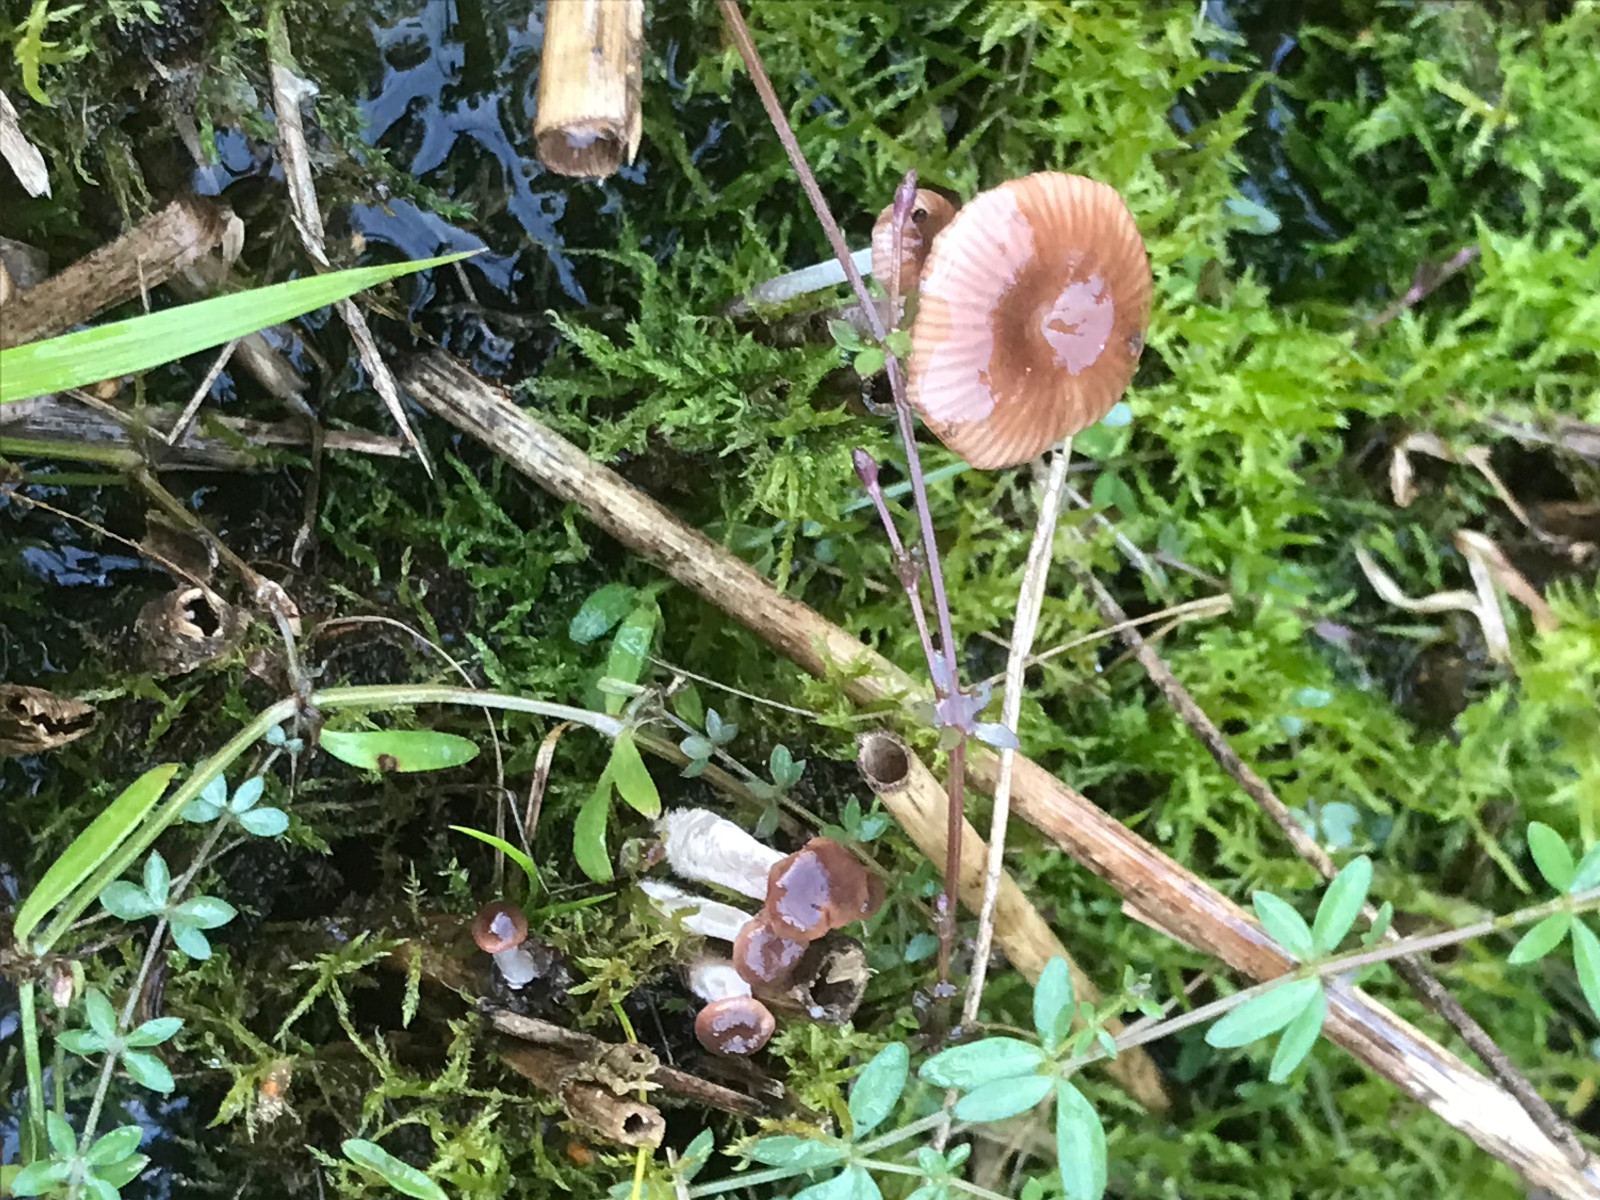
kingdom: Fungi
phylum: Basidiomycota
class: Agaricomycetes
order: Agaricales
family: Mycenaceae
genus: Mycena
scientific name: Mycena belliae
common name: tagrørs-huesvamp
